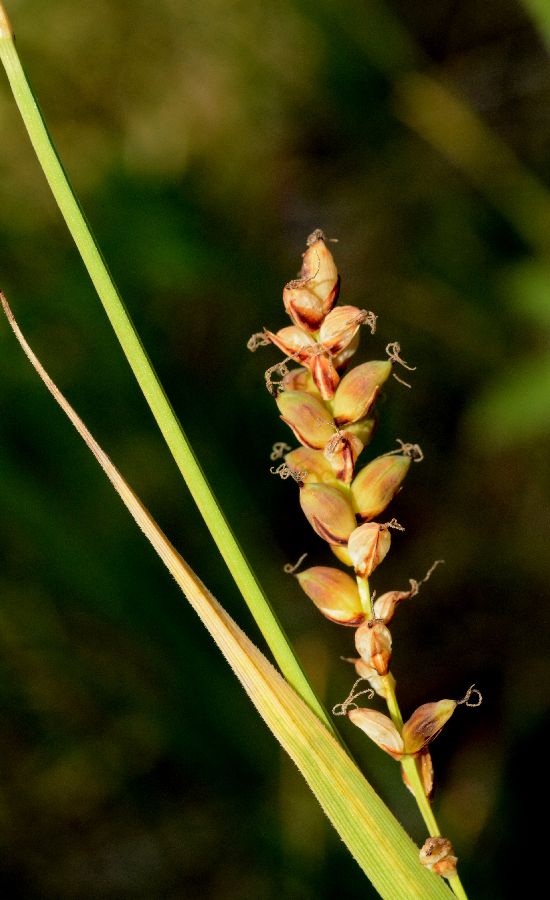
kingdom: Plantae
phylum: Tracheophyta
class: Liliopsida
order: Poales
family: Cyperaceae
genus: Carex
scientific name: Carex panicea
